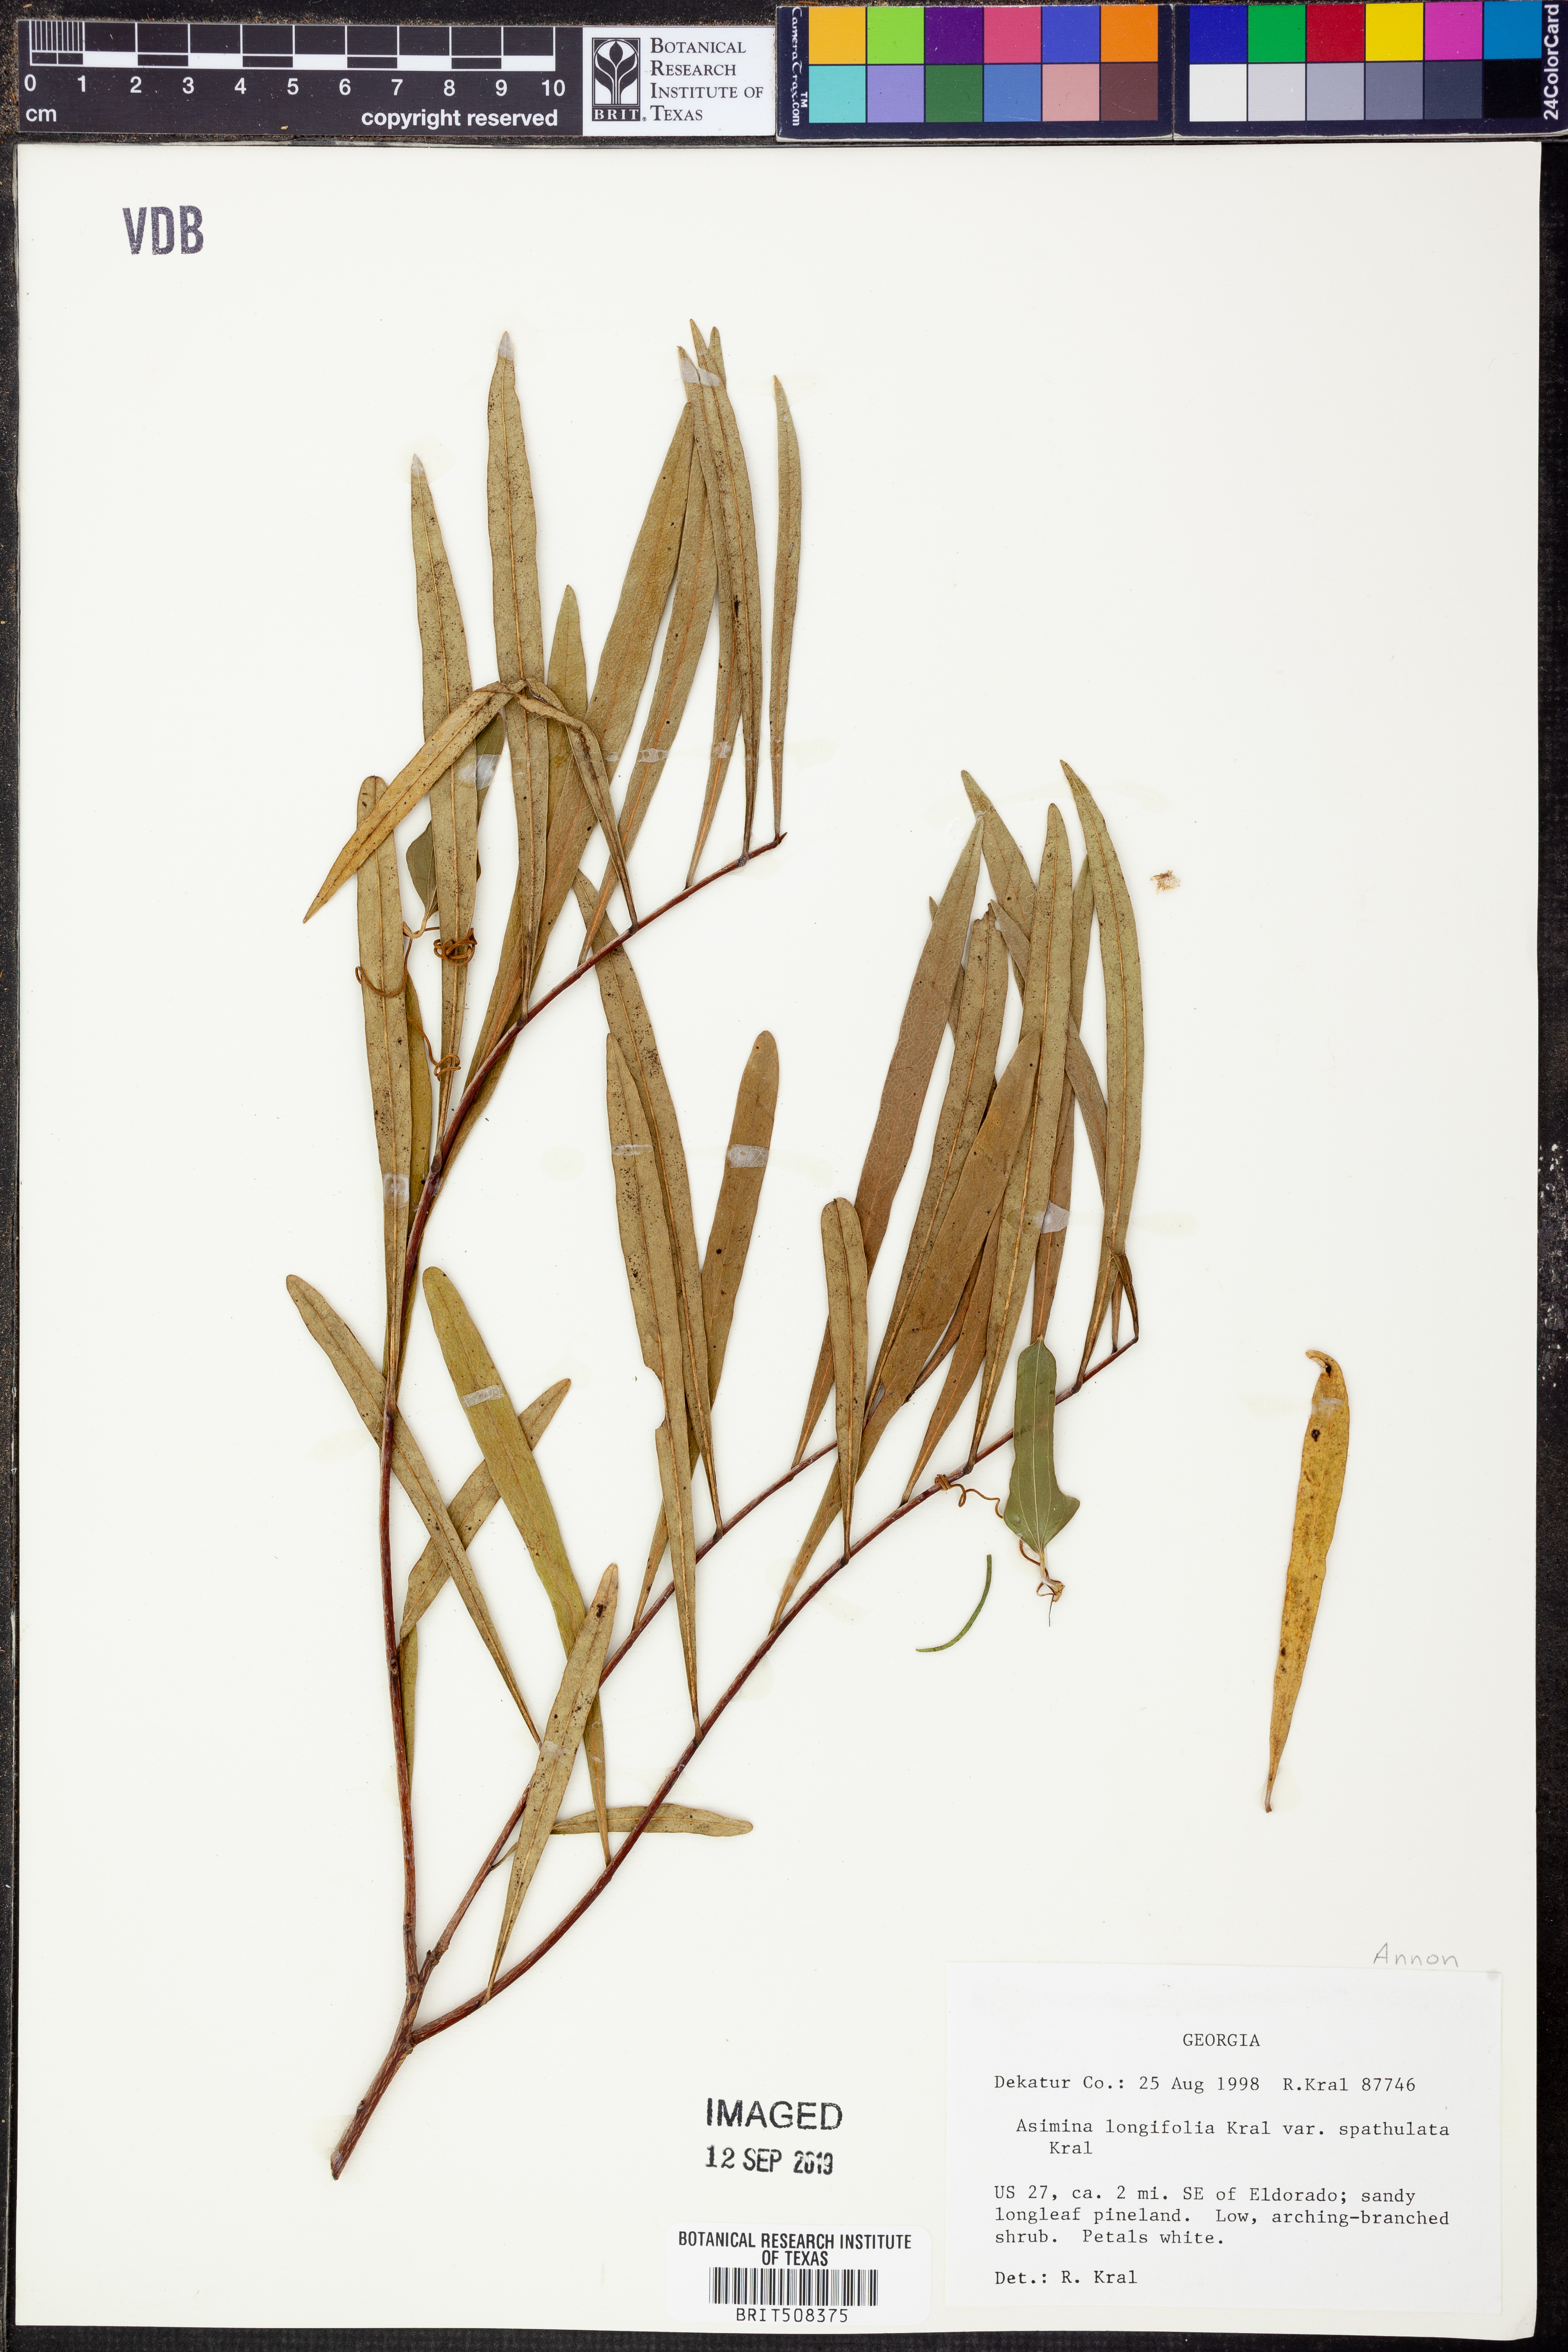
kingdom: Plantae
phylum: Tracheophyta
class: Magnoliopsida
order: Magnoliales
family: Annonaceae
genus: Asimina
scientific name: Asimina longifolia
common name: Polecatbush
